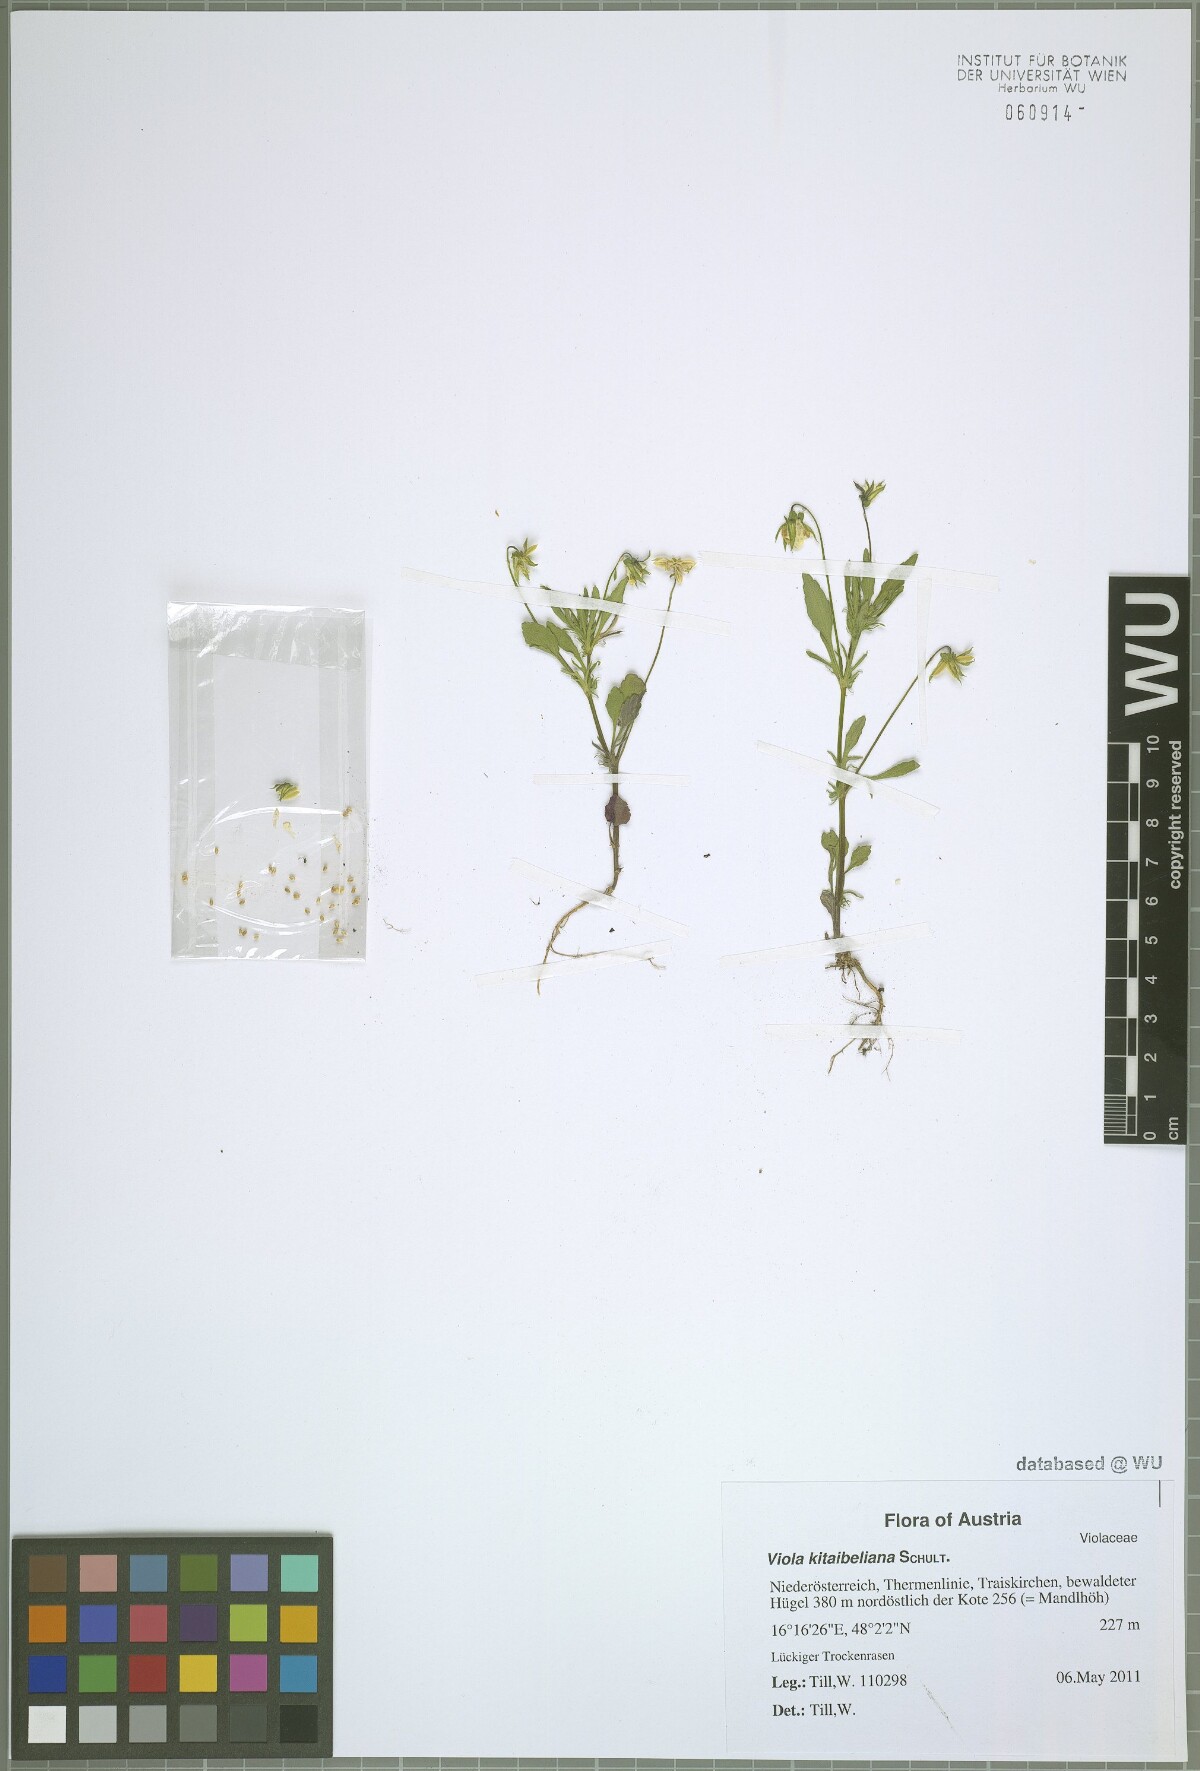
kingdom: Plantae
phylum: Tracheophyta
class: Magnoliopsida
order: Malpighiales
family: Violaceae
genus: Viola
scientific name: Viola arvensis
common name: Field pansy
